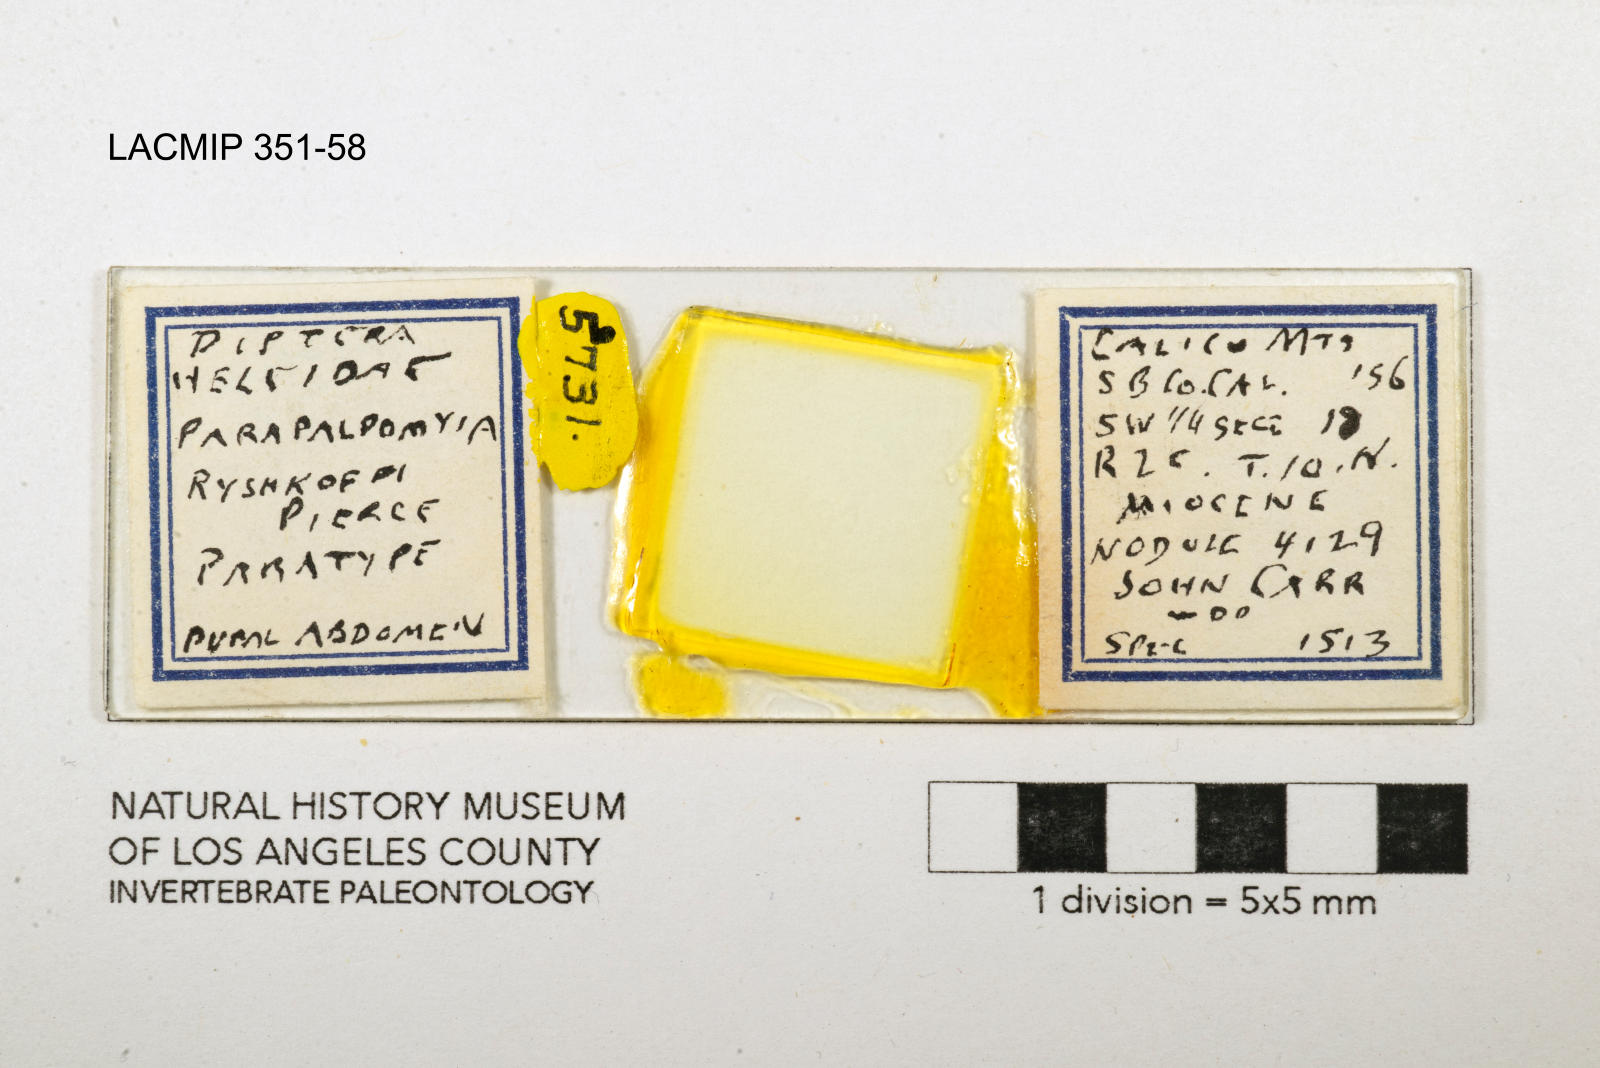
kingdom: Animalia
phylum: Arthropoda
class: Insecta
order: Diptera
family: Ceratopogonidae
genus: Palpomyia
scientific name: Palpomyia ryshkoffi
